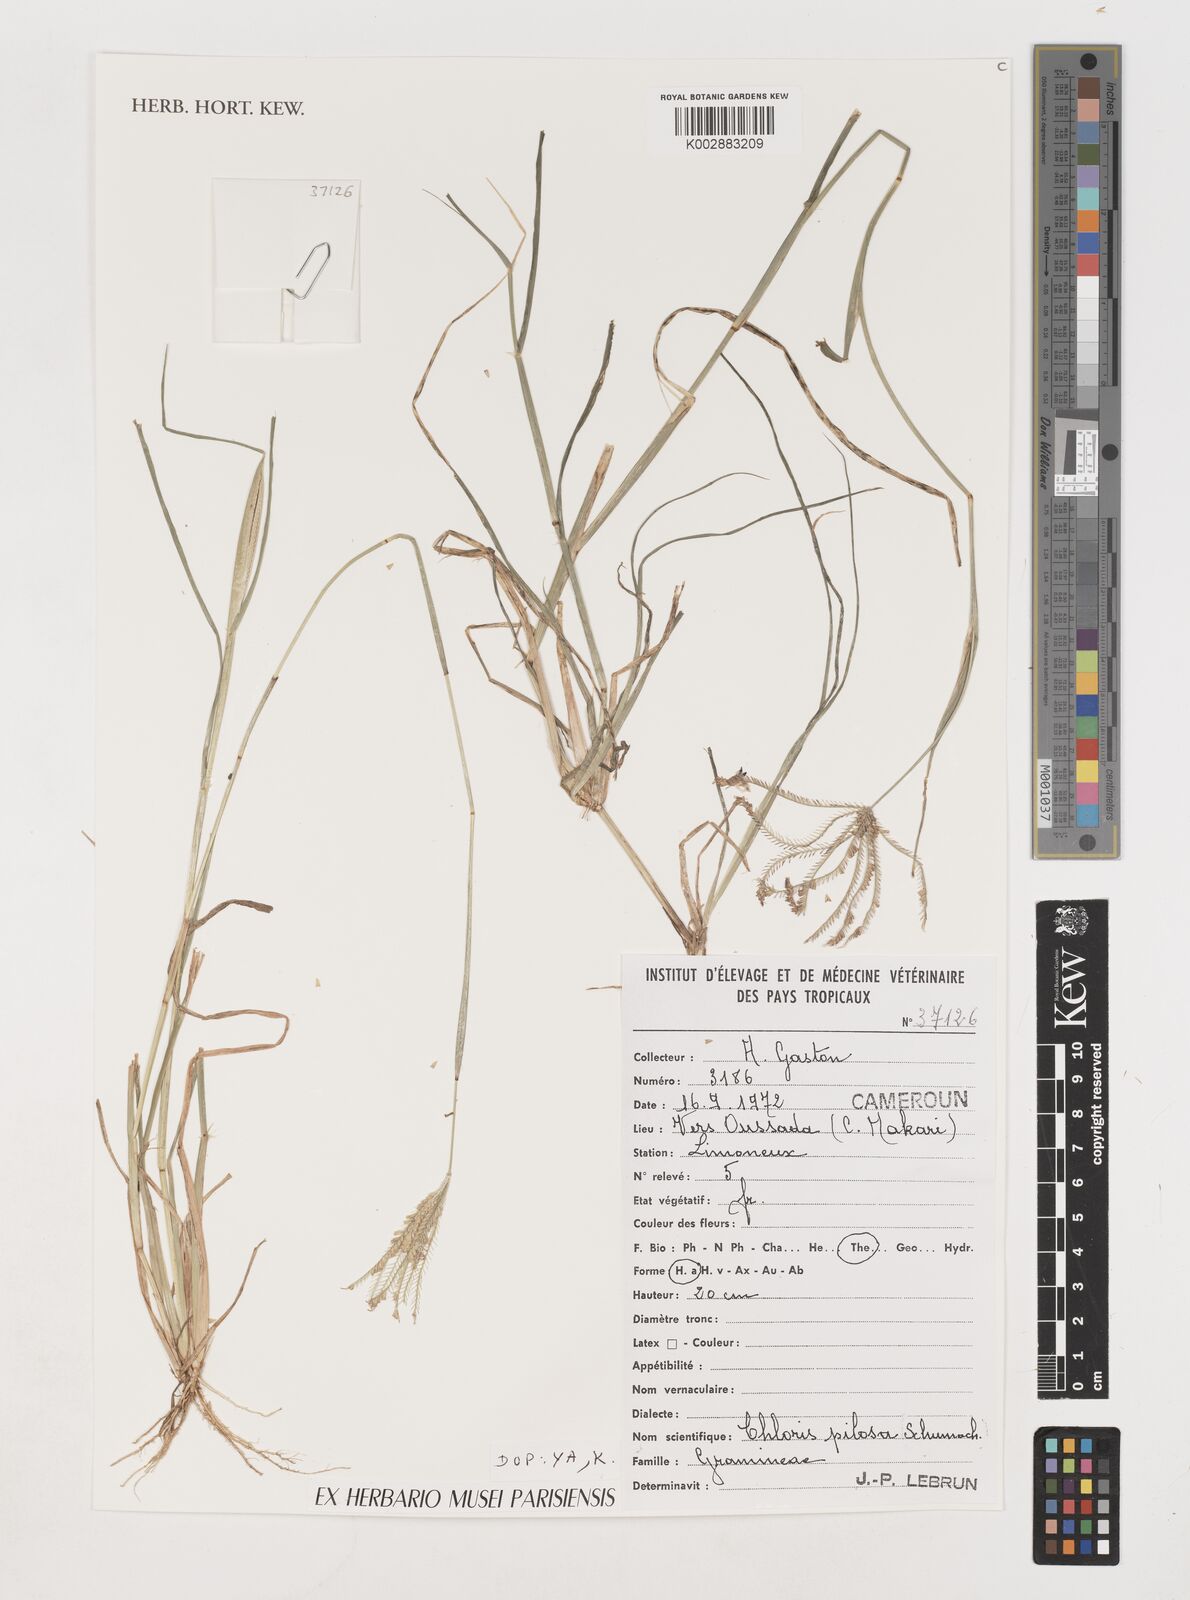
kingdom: Plantae
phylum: Tracheophyta
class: Liliopsida
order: Poales
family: Poaceae
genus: Chloris
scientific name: Chloris pilosa
